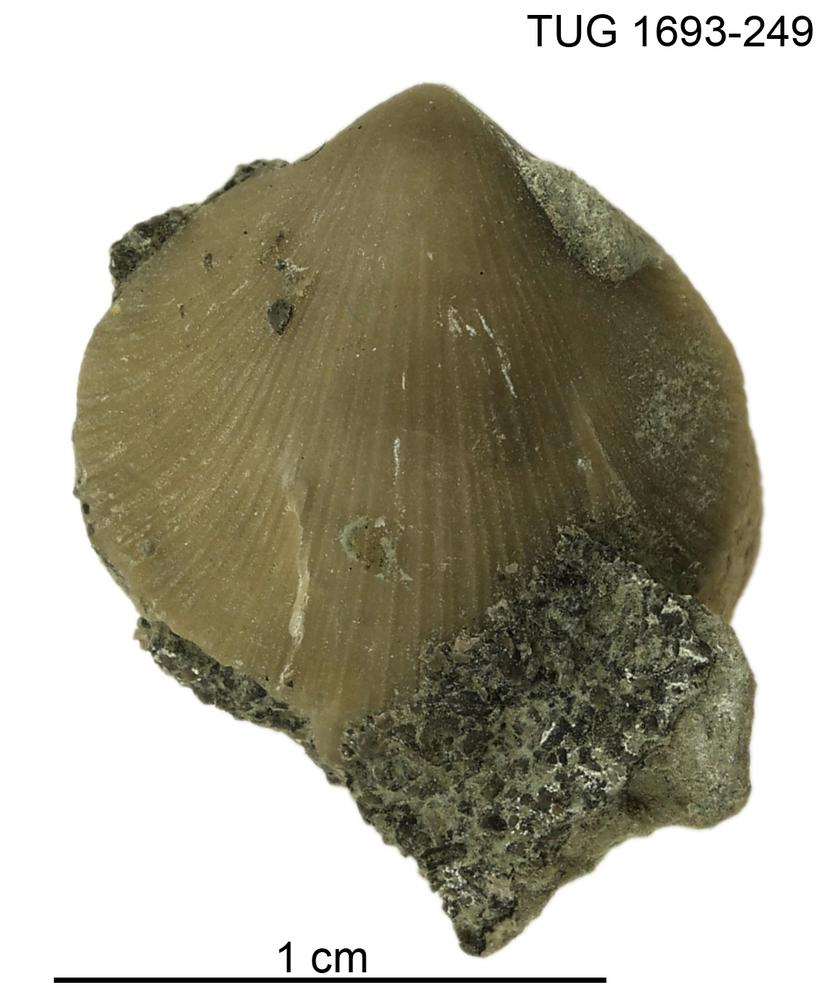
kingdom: Animalia
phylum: Brachiopoda
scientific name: Brachiopoda
